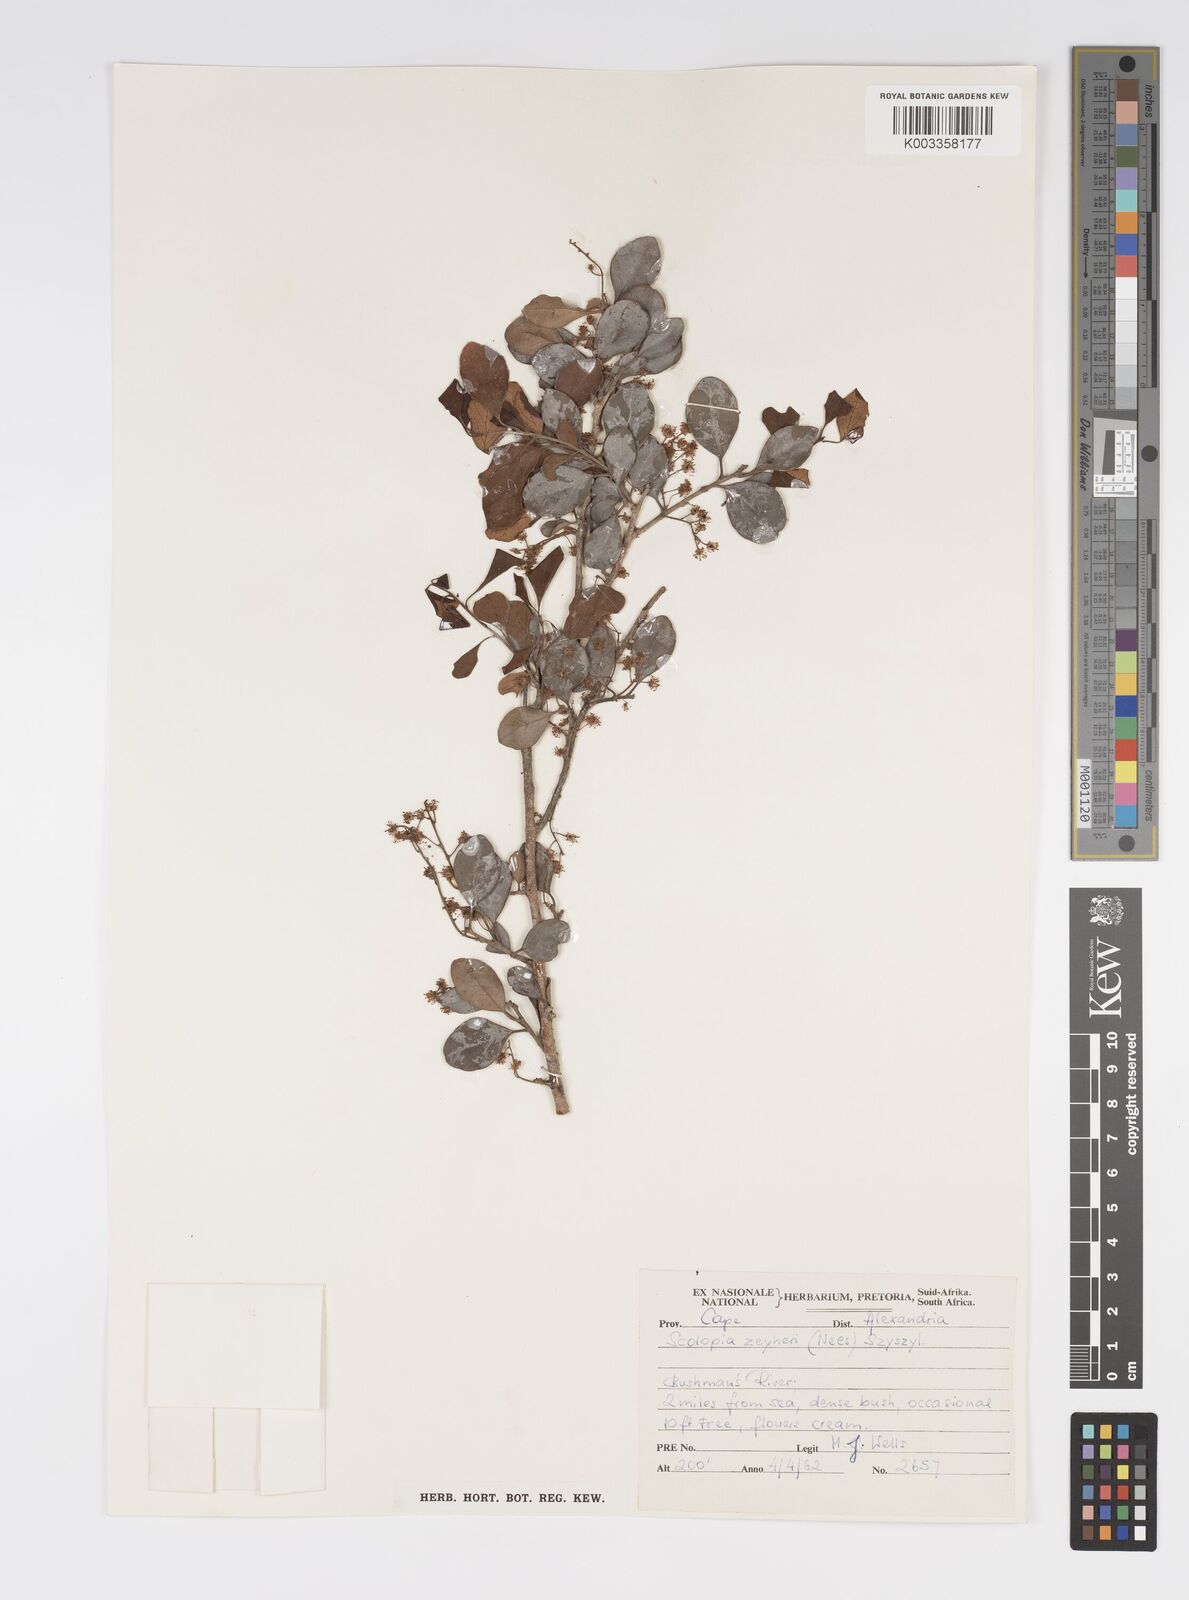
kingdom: Plantae
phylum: Tracheophyta
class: Magnoliopsida
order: Malpighiales
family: Salicaceae
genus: Scolopia
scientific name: Scolopia zeyheri
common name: Thorn pear
